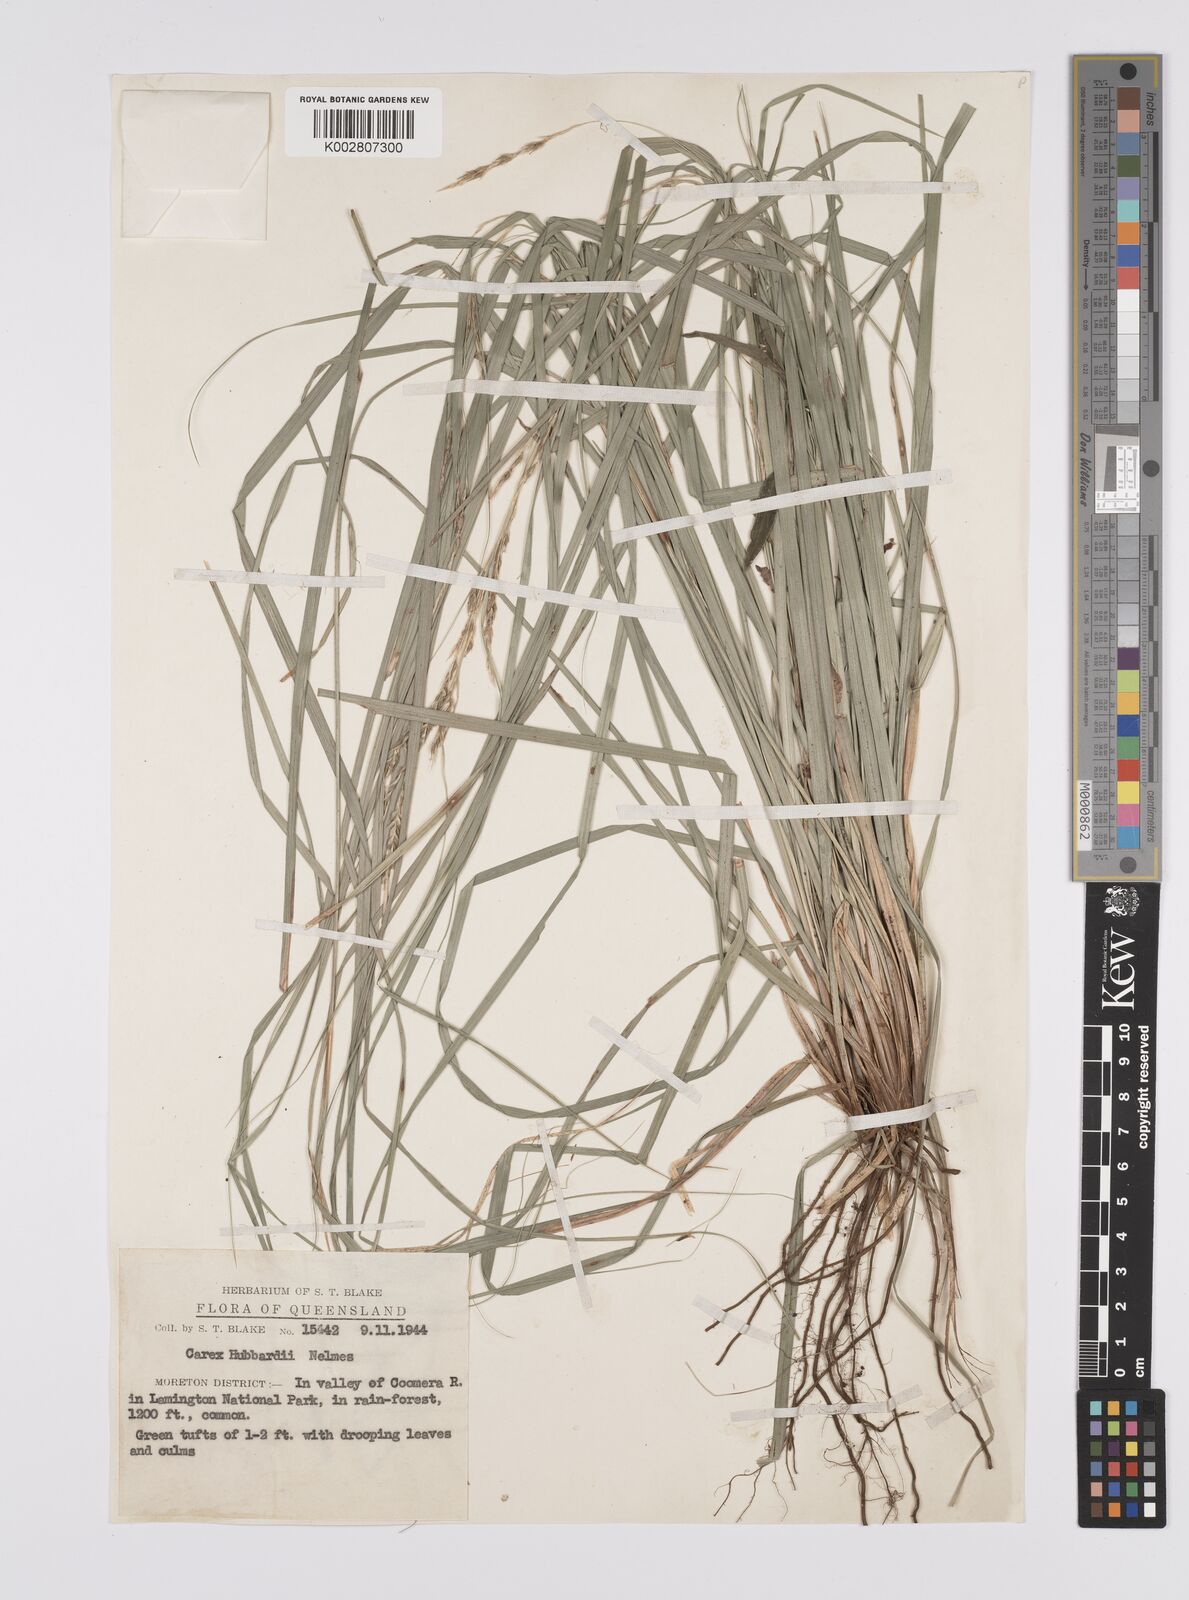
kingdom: Plantae
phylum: Tracheophyta
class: Liliopsida
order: Poales
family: Cyperaceae
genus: Carex
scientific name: Carex hubbardii
